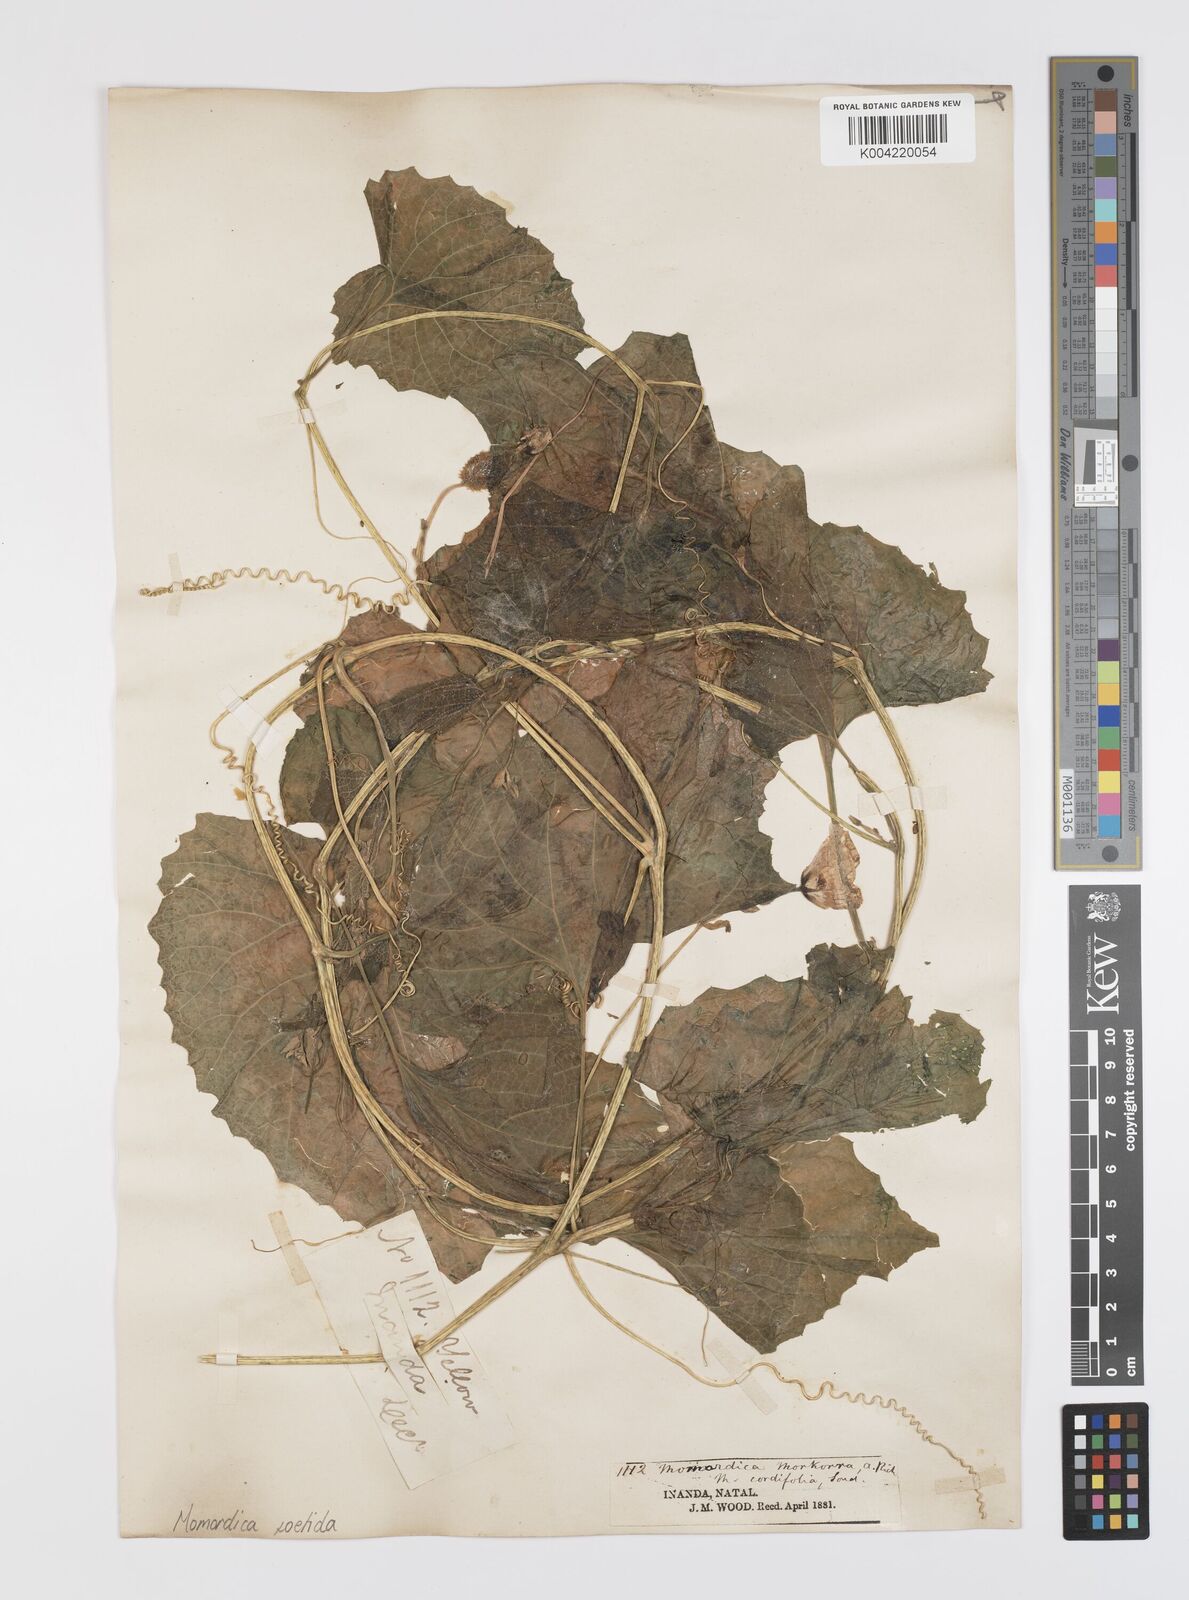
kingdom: Plantae
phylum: Tracheophyta
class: Magnoliopsida
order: Cucurbitales
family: Cucurbitaceae
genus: Momordica
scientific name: Momordica foetida
